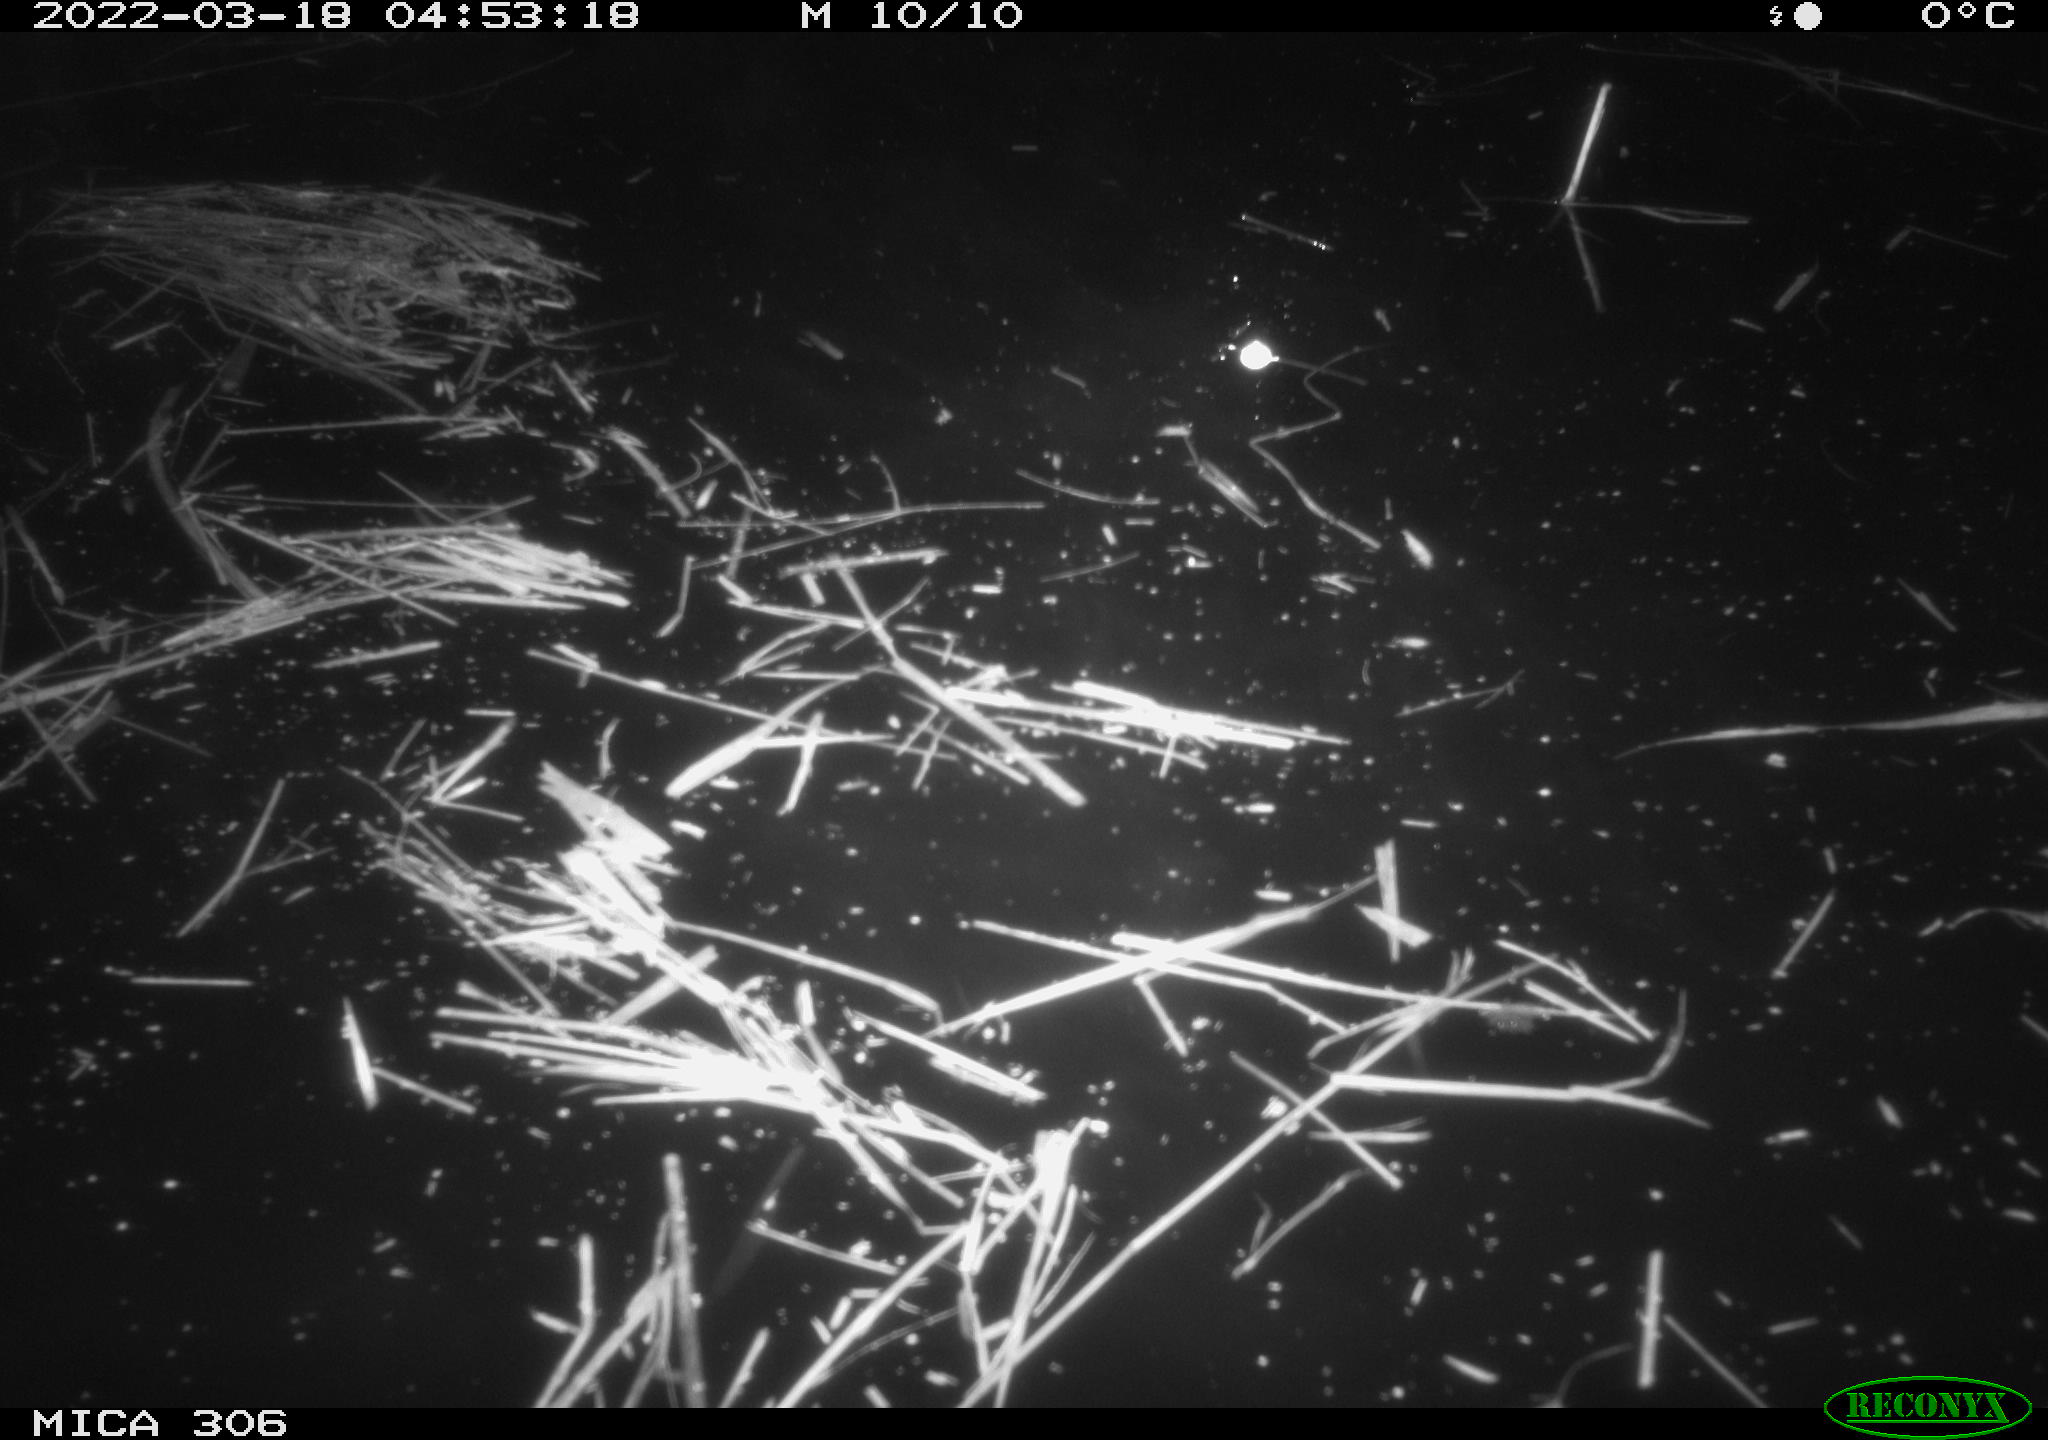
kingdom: Animalia
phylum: Chordata
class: Aves
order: Anseriformes
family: Anatidae
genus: Anas
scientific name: Anas platyrhynchos
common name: Mallard
